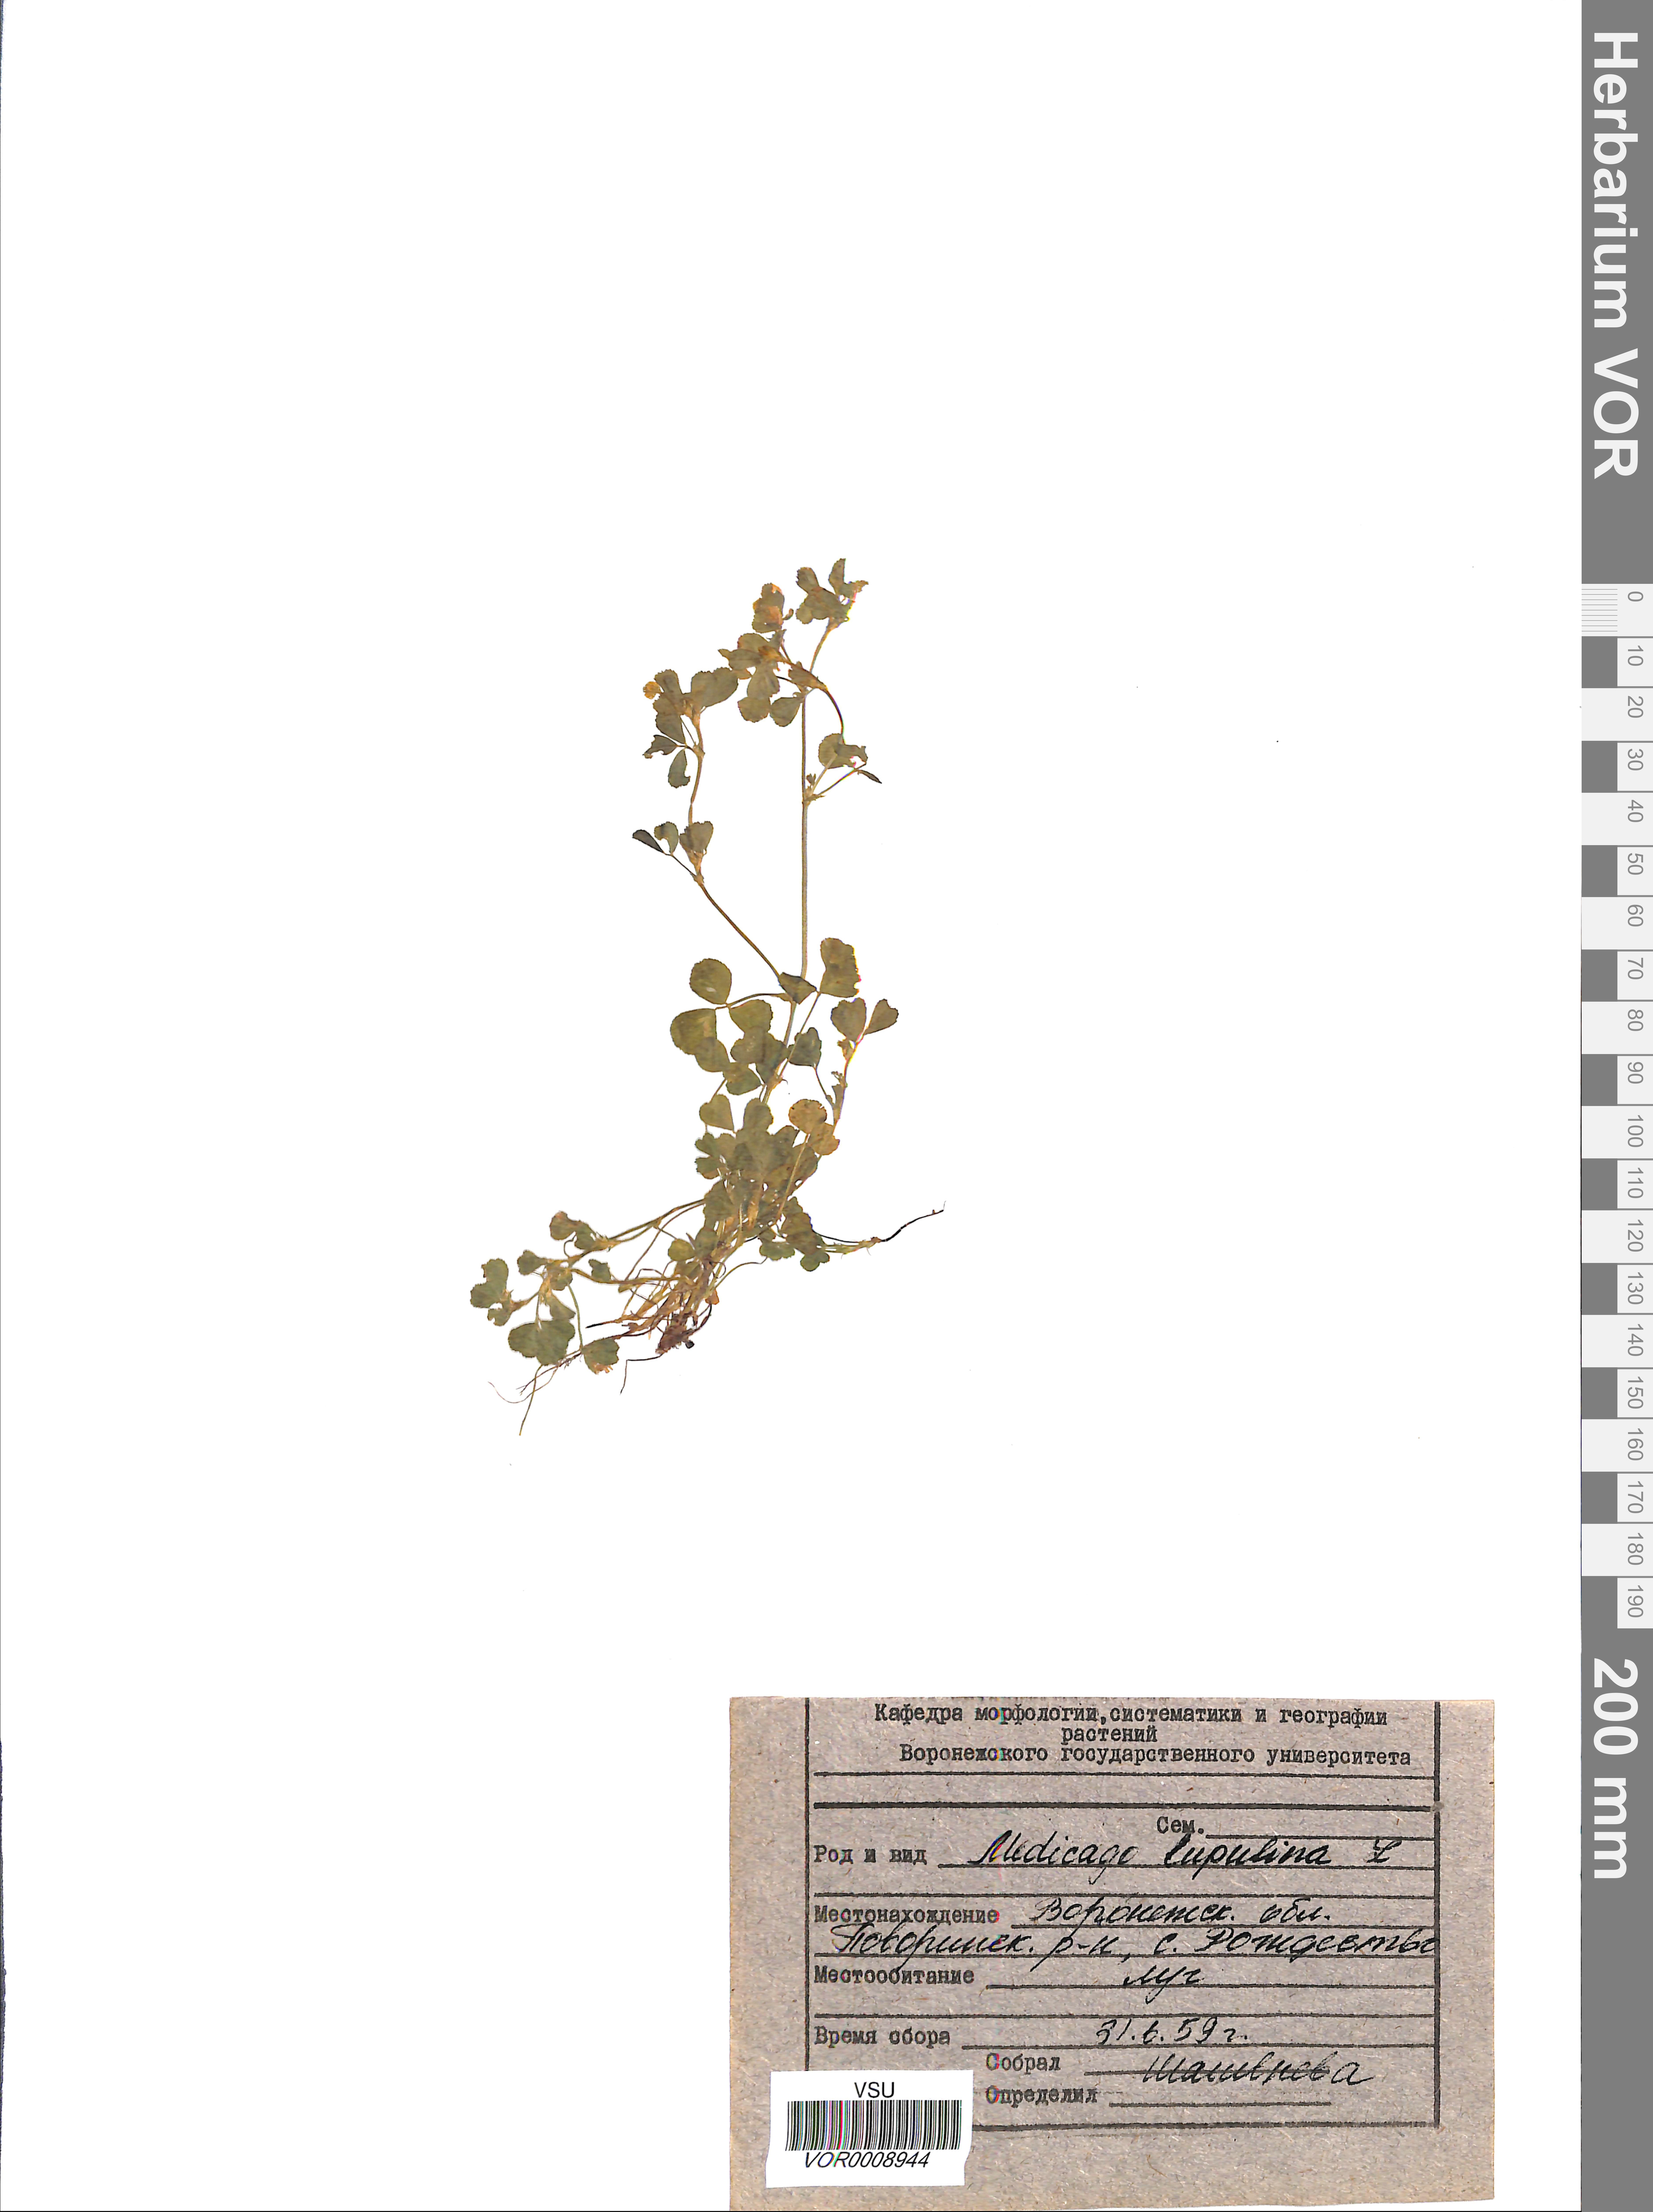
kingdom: Plantae
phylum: Tracheophyta
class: Magnoliopsida
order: Fabales
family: Fabaceae
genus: Medicago
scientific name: Medicago lupulina
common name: Black medick
